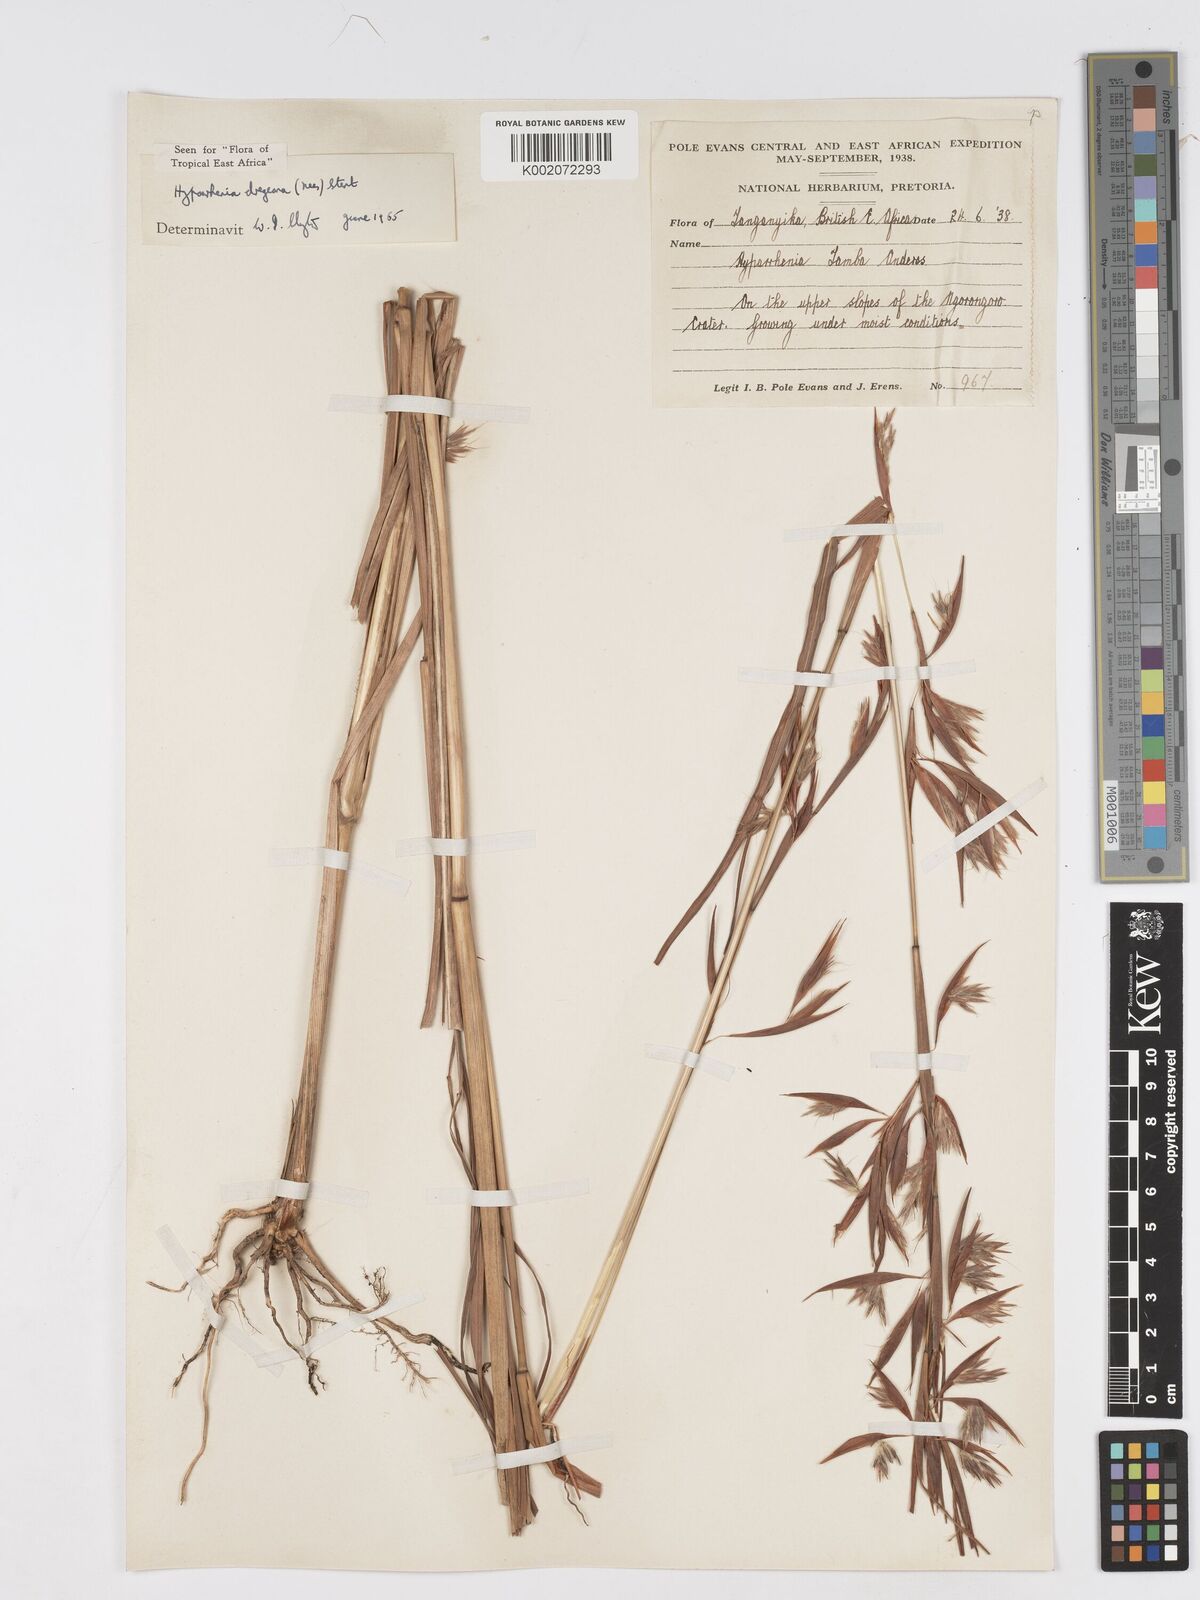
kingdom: Plantae
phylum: Tracheophyta
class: Liliopsida
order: Poales
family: Poaceae
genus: Hyparrhenia
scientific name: Hyparrhenia dregeana
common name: Silky thatching grass
